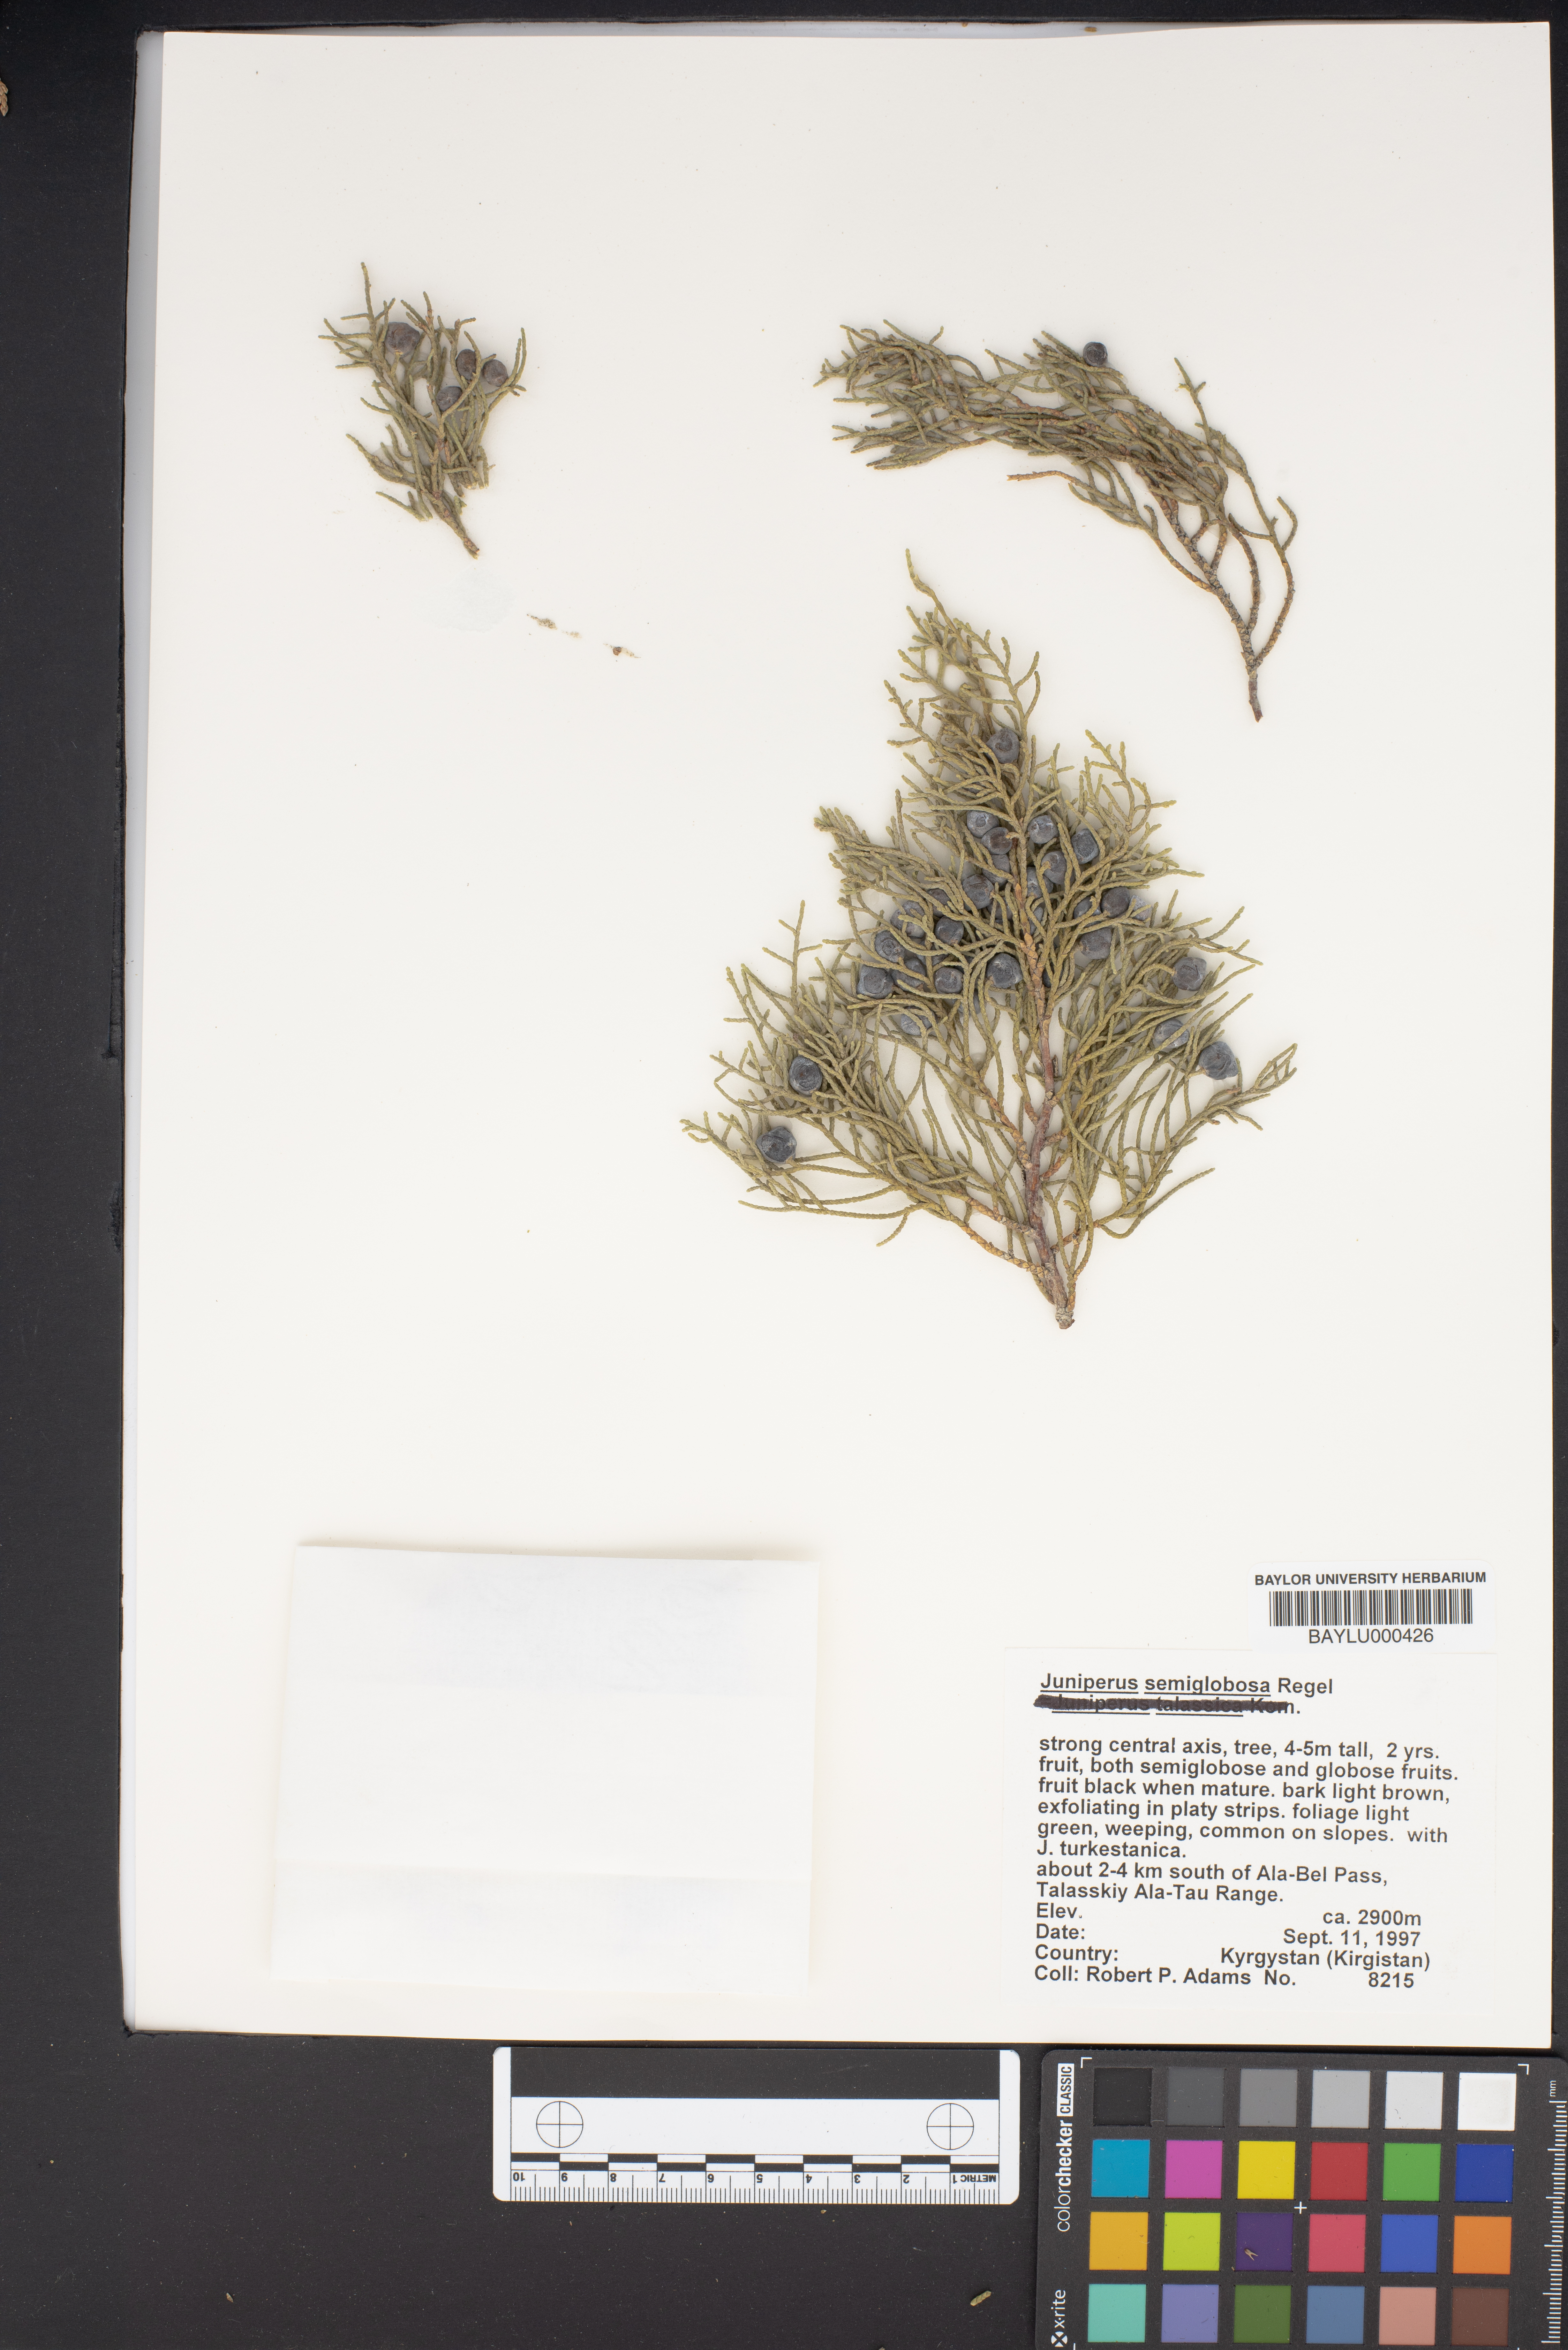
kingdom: Plantae
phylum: Tracheophyta
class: Pinopsida
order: Pinales
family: Cupressaceae
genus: Juniperus
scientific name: Juniperus semiglobosa
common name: Pencil cedar
